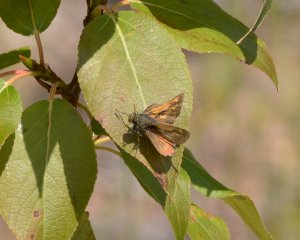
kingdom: Animalia
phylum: Arthropoda
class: Insecta
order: Lepidoptera
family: Hesperiidae
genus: Polites
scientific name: Polites
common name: Long Dash Skipper
